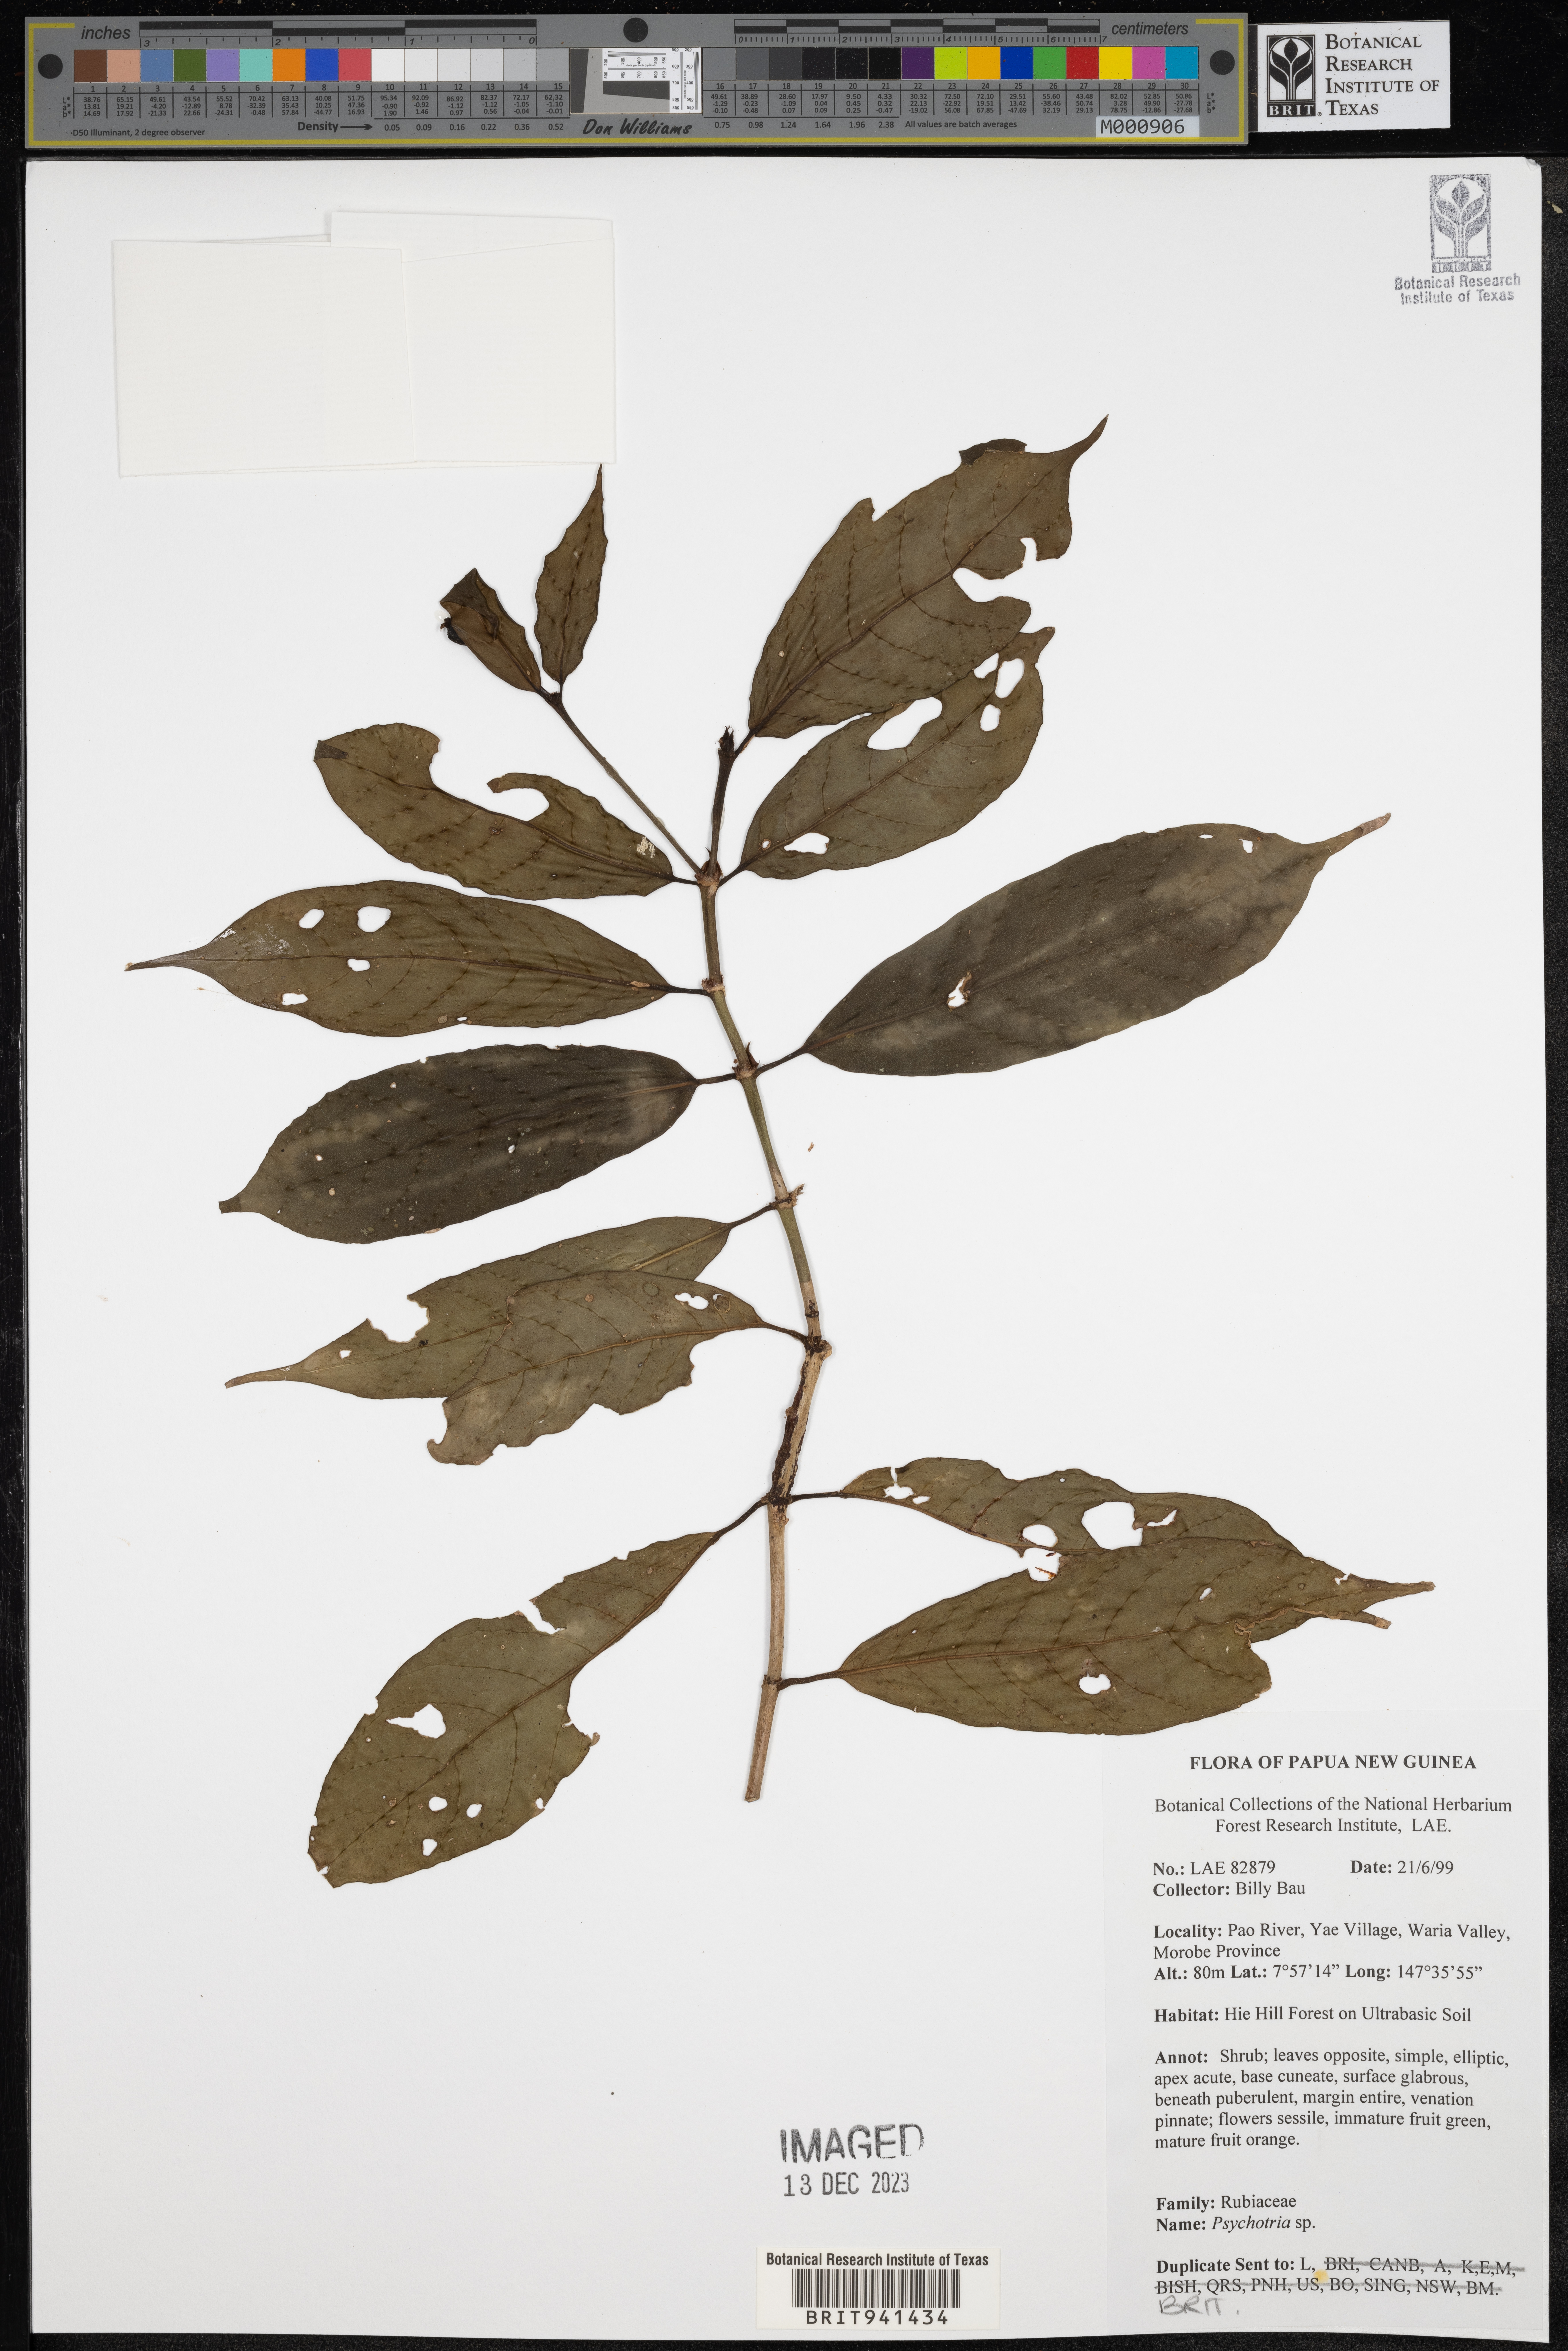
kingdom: Plantae
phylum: Tracheophyta
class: Magnoliopsida
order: Gentianales
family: Rubiaceae
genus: Psychotria
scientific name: Psychotria
